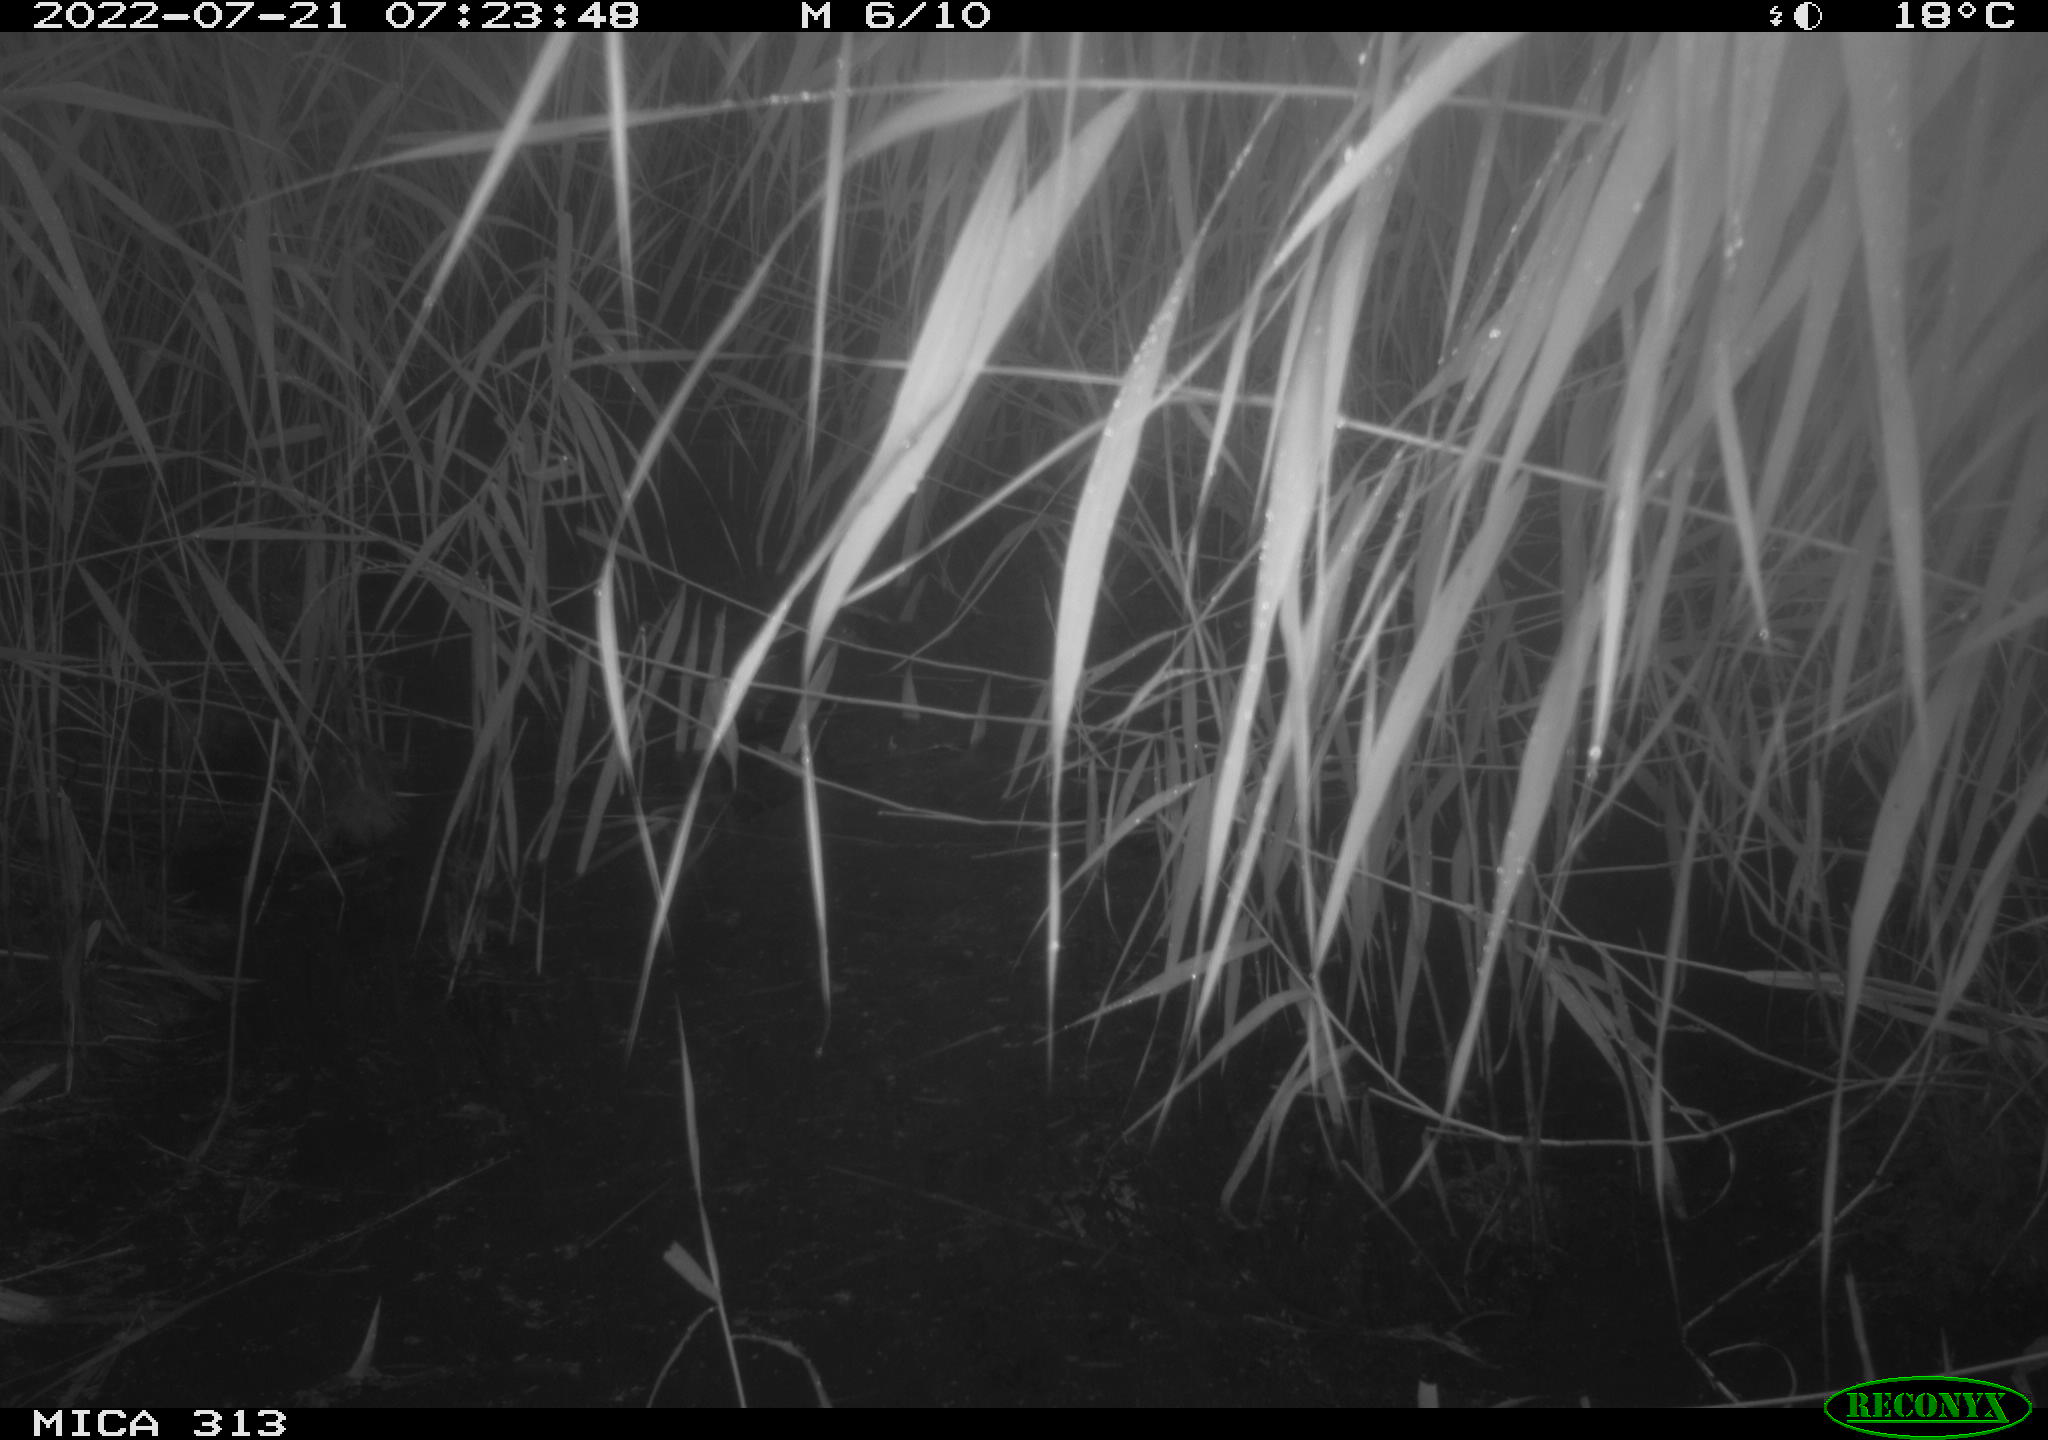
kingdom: Animalia
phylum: Chordata
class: Aves
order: Anseriformes
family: Anatidae
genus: Mareca
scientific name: Mareca strepera
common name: Gadwall
